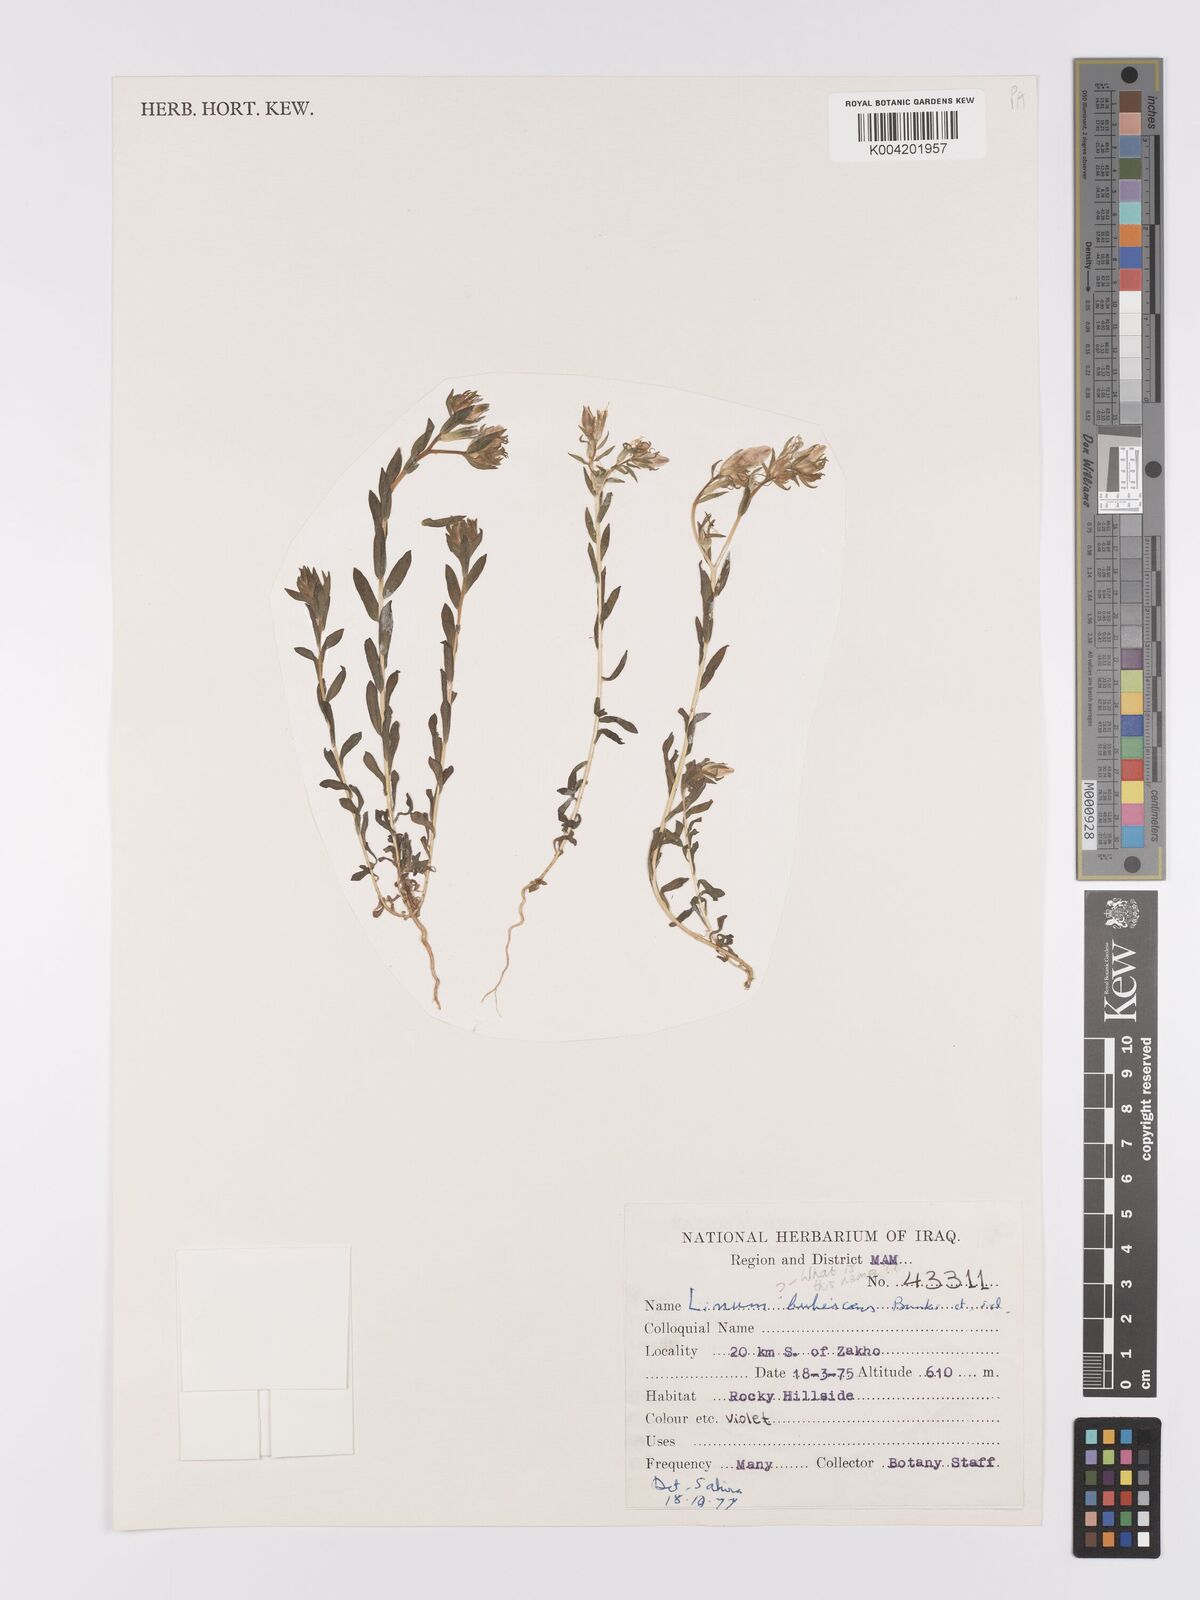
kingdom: Plantae
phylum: Tracheophyta
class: Magnoliopsida
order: Malpighiales
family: Linaceae
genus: Linum
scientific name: Linum
